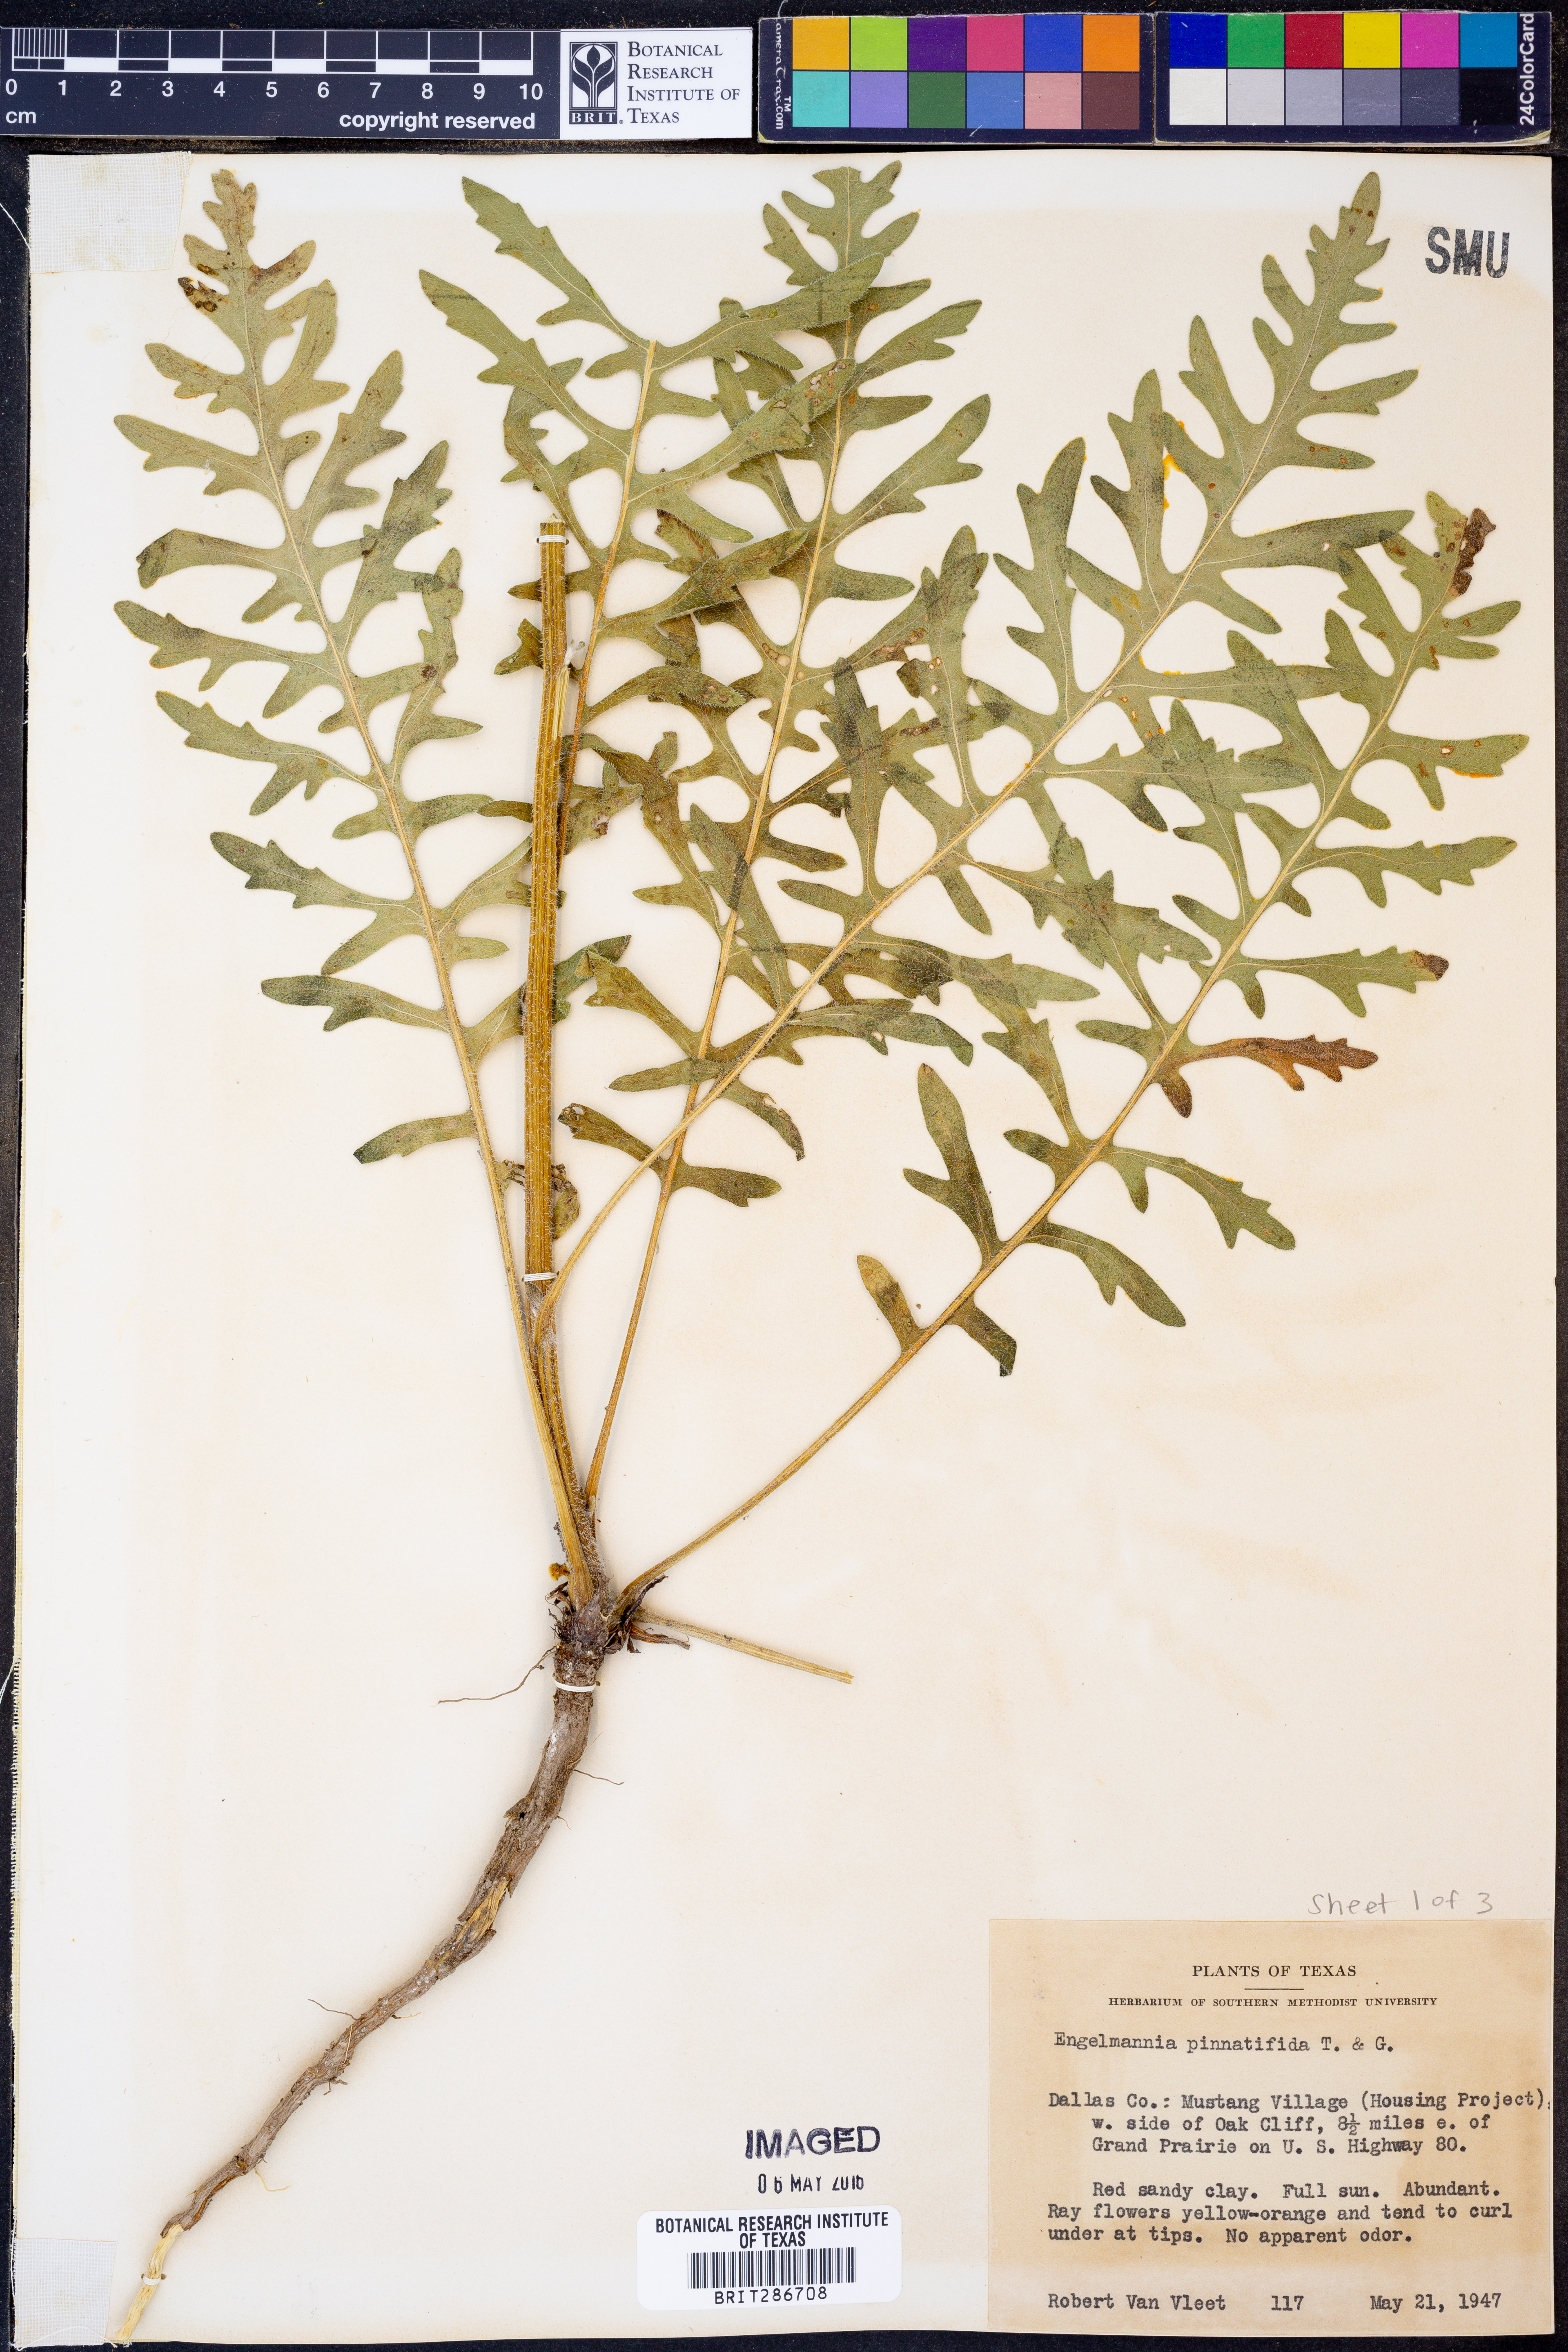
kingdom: Plantae
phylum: Tracheophyta
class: Magnoliopsida
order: Asterales
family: Asteraceae
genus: Engelmannia
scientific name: Engelmannia peristenia
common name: Engelmann's daisy
